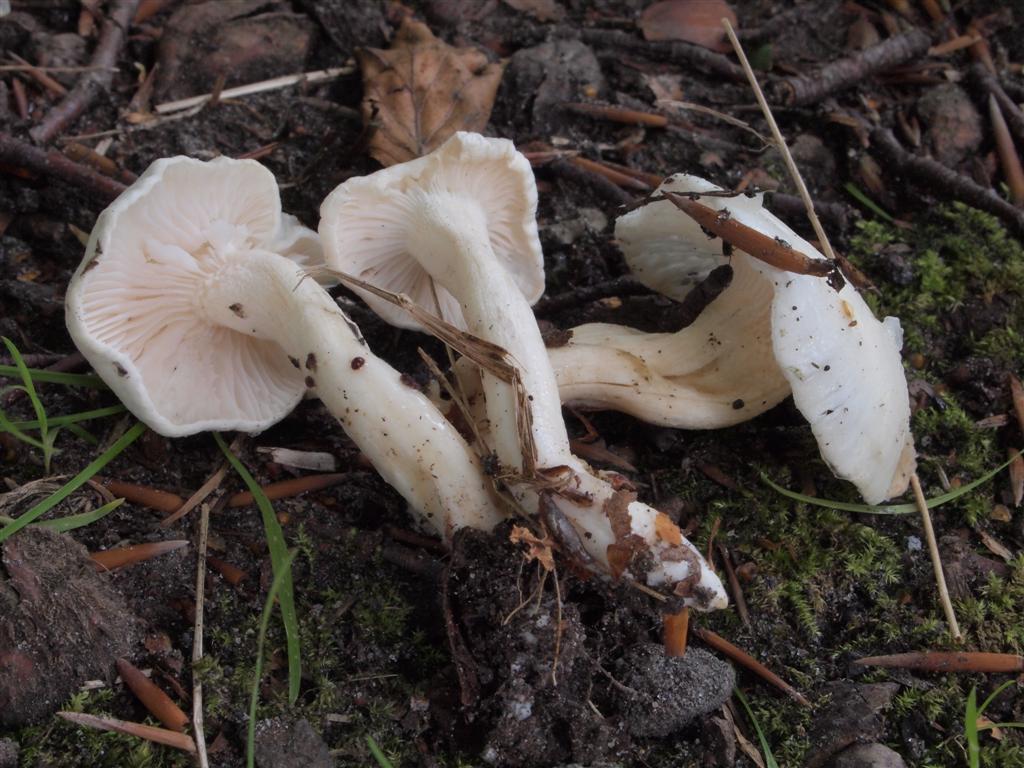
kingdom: Fungi
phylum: Basidiomycota
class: Agaricomycetes
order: Agaricales
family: Hygrophoraceae
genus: Hygrophorus
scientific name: Hygrophorus eburneus
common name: elfenbens-sneglehat
